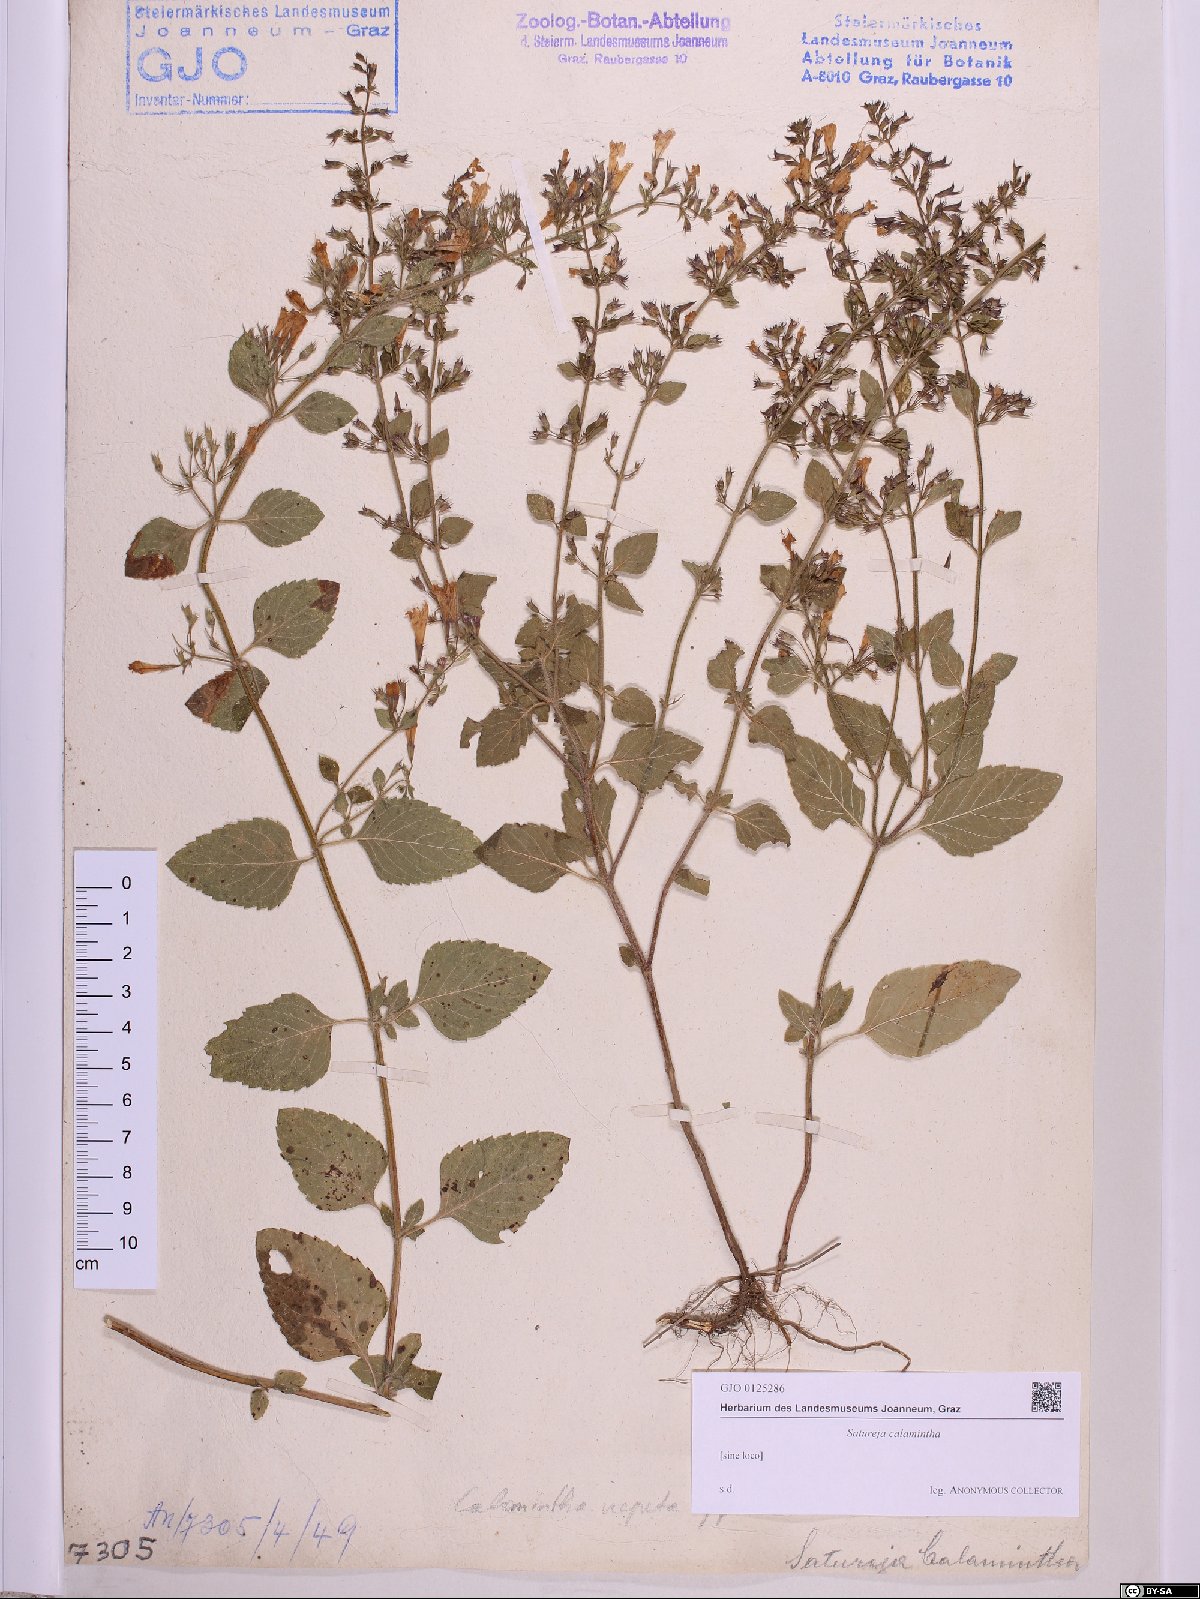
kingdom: Plantae
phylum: Tracheophyta
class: Magnoliopsida
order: Lamiales
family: Lamiaceae
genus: Clinopodium
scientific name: Clinopodium nepeta
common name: Lesser calamint
